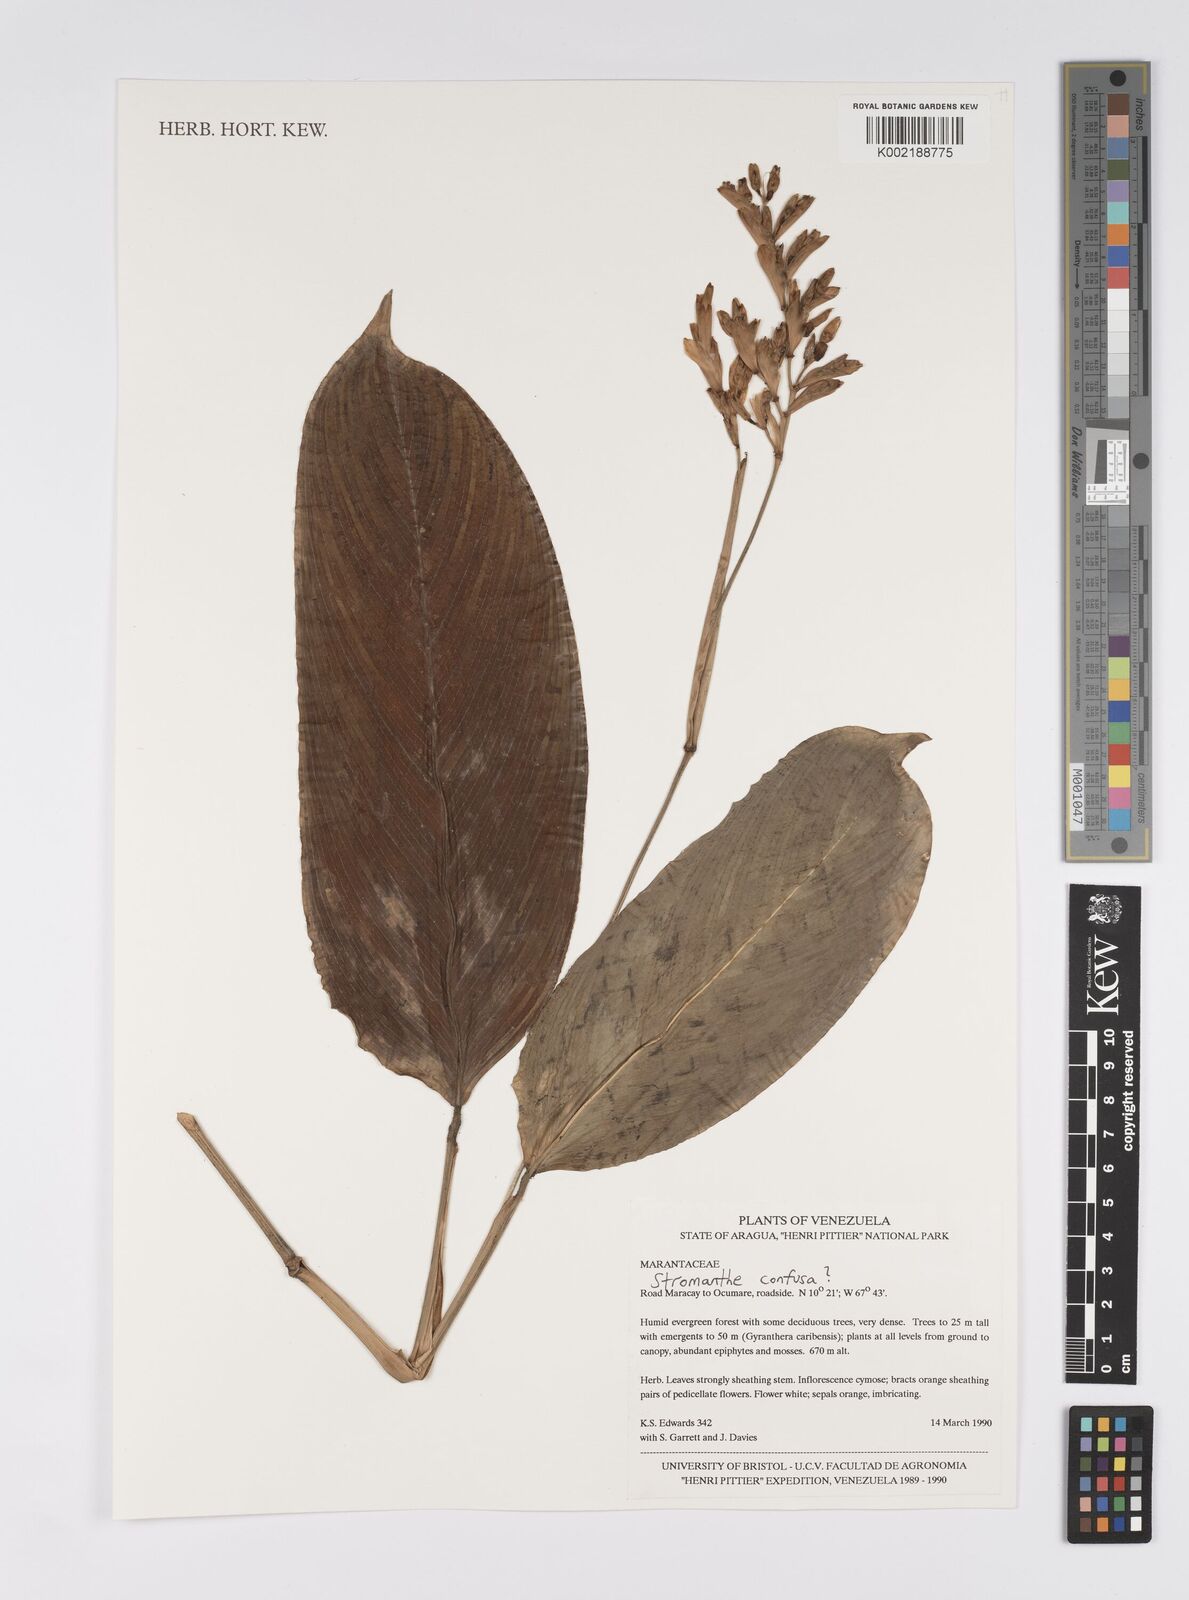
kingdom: Plantae
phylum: Tracheophyta
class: Liliopsida
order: Zingiberales
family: Marantaceae
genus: Stromanthe
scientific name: Stromanthe confusa
